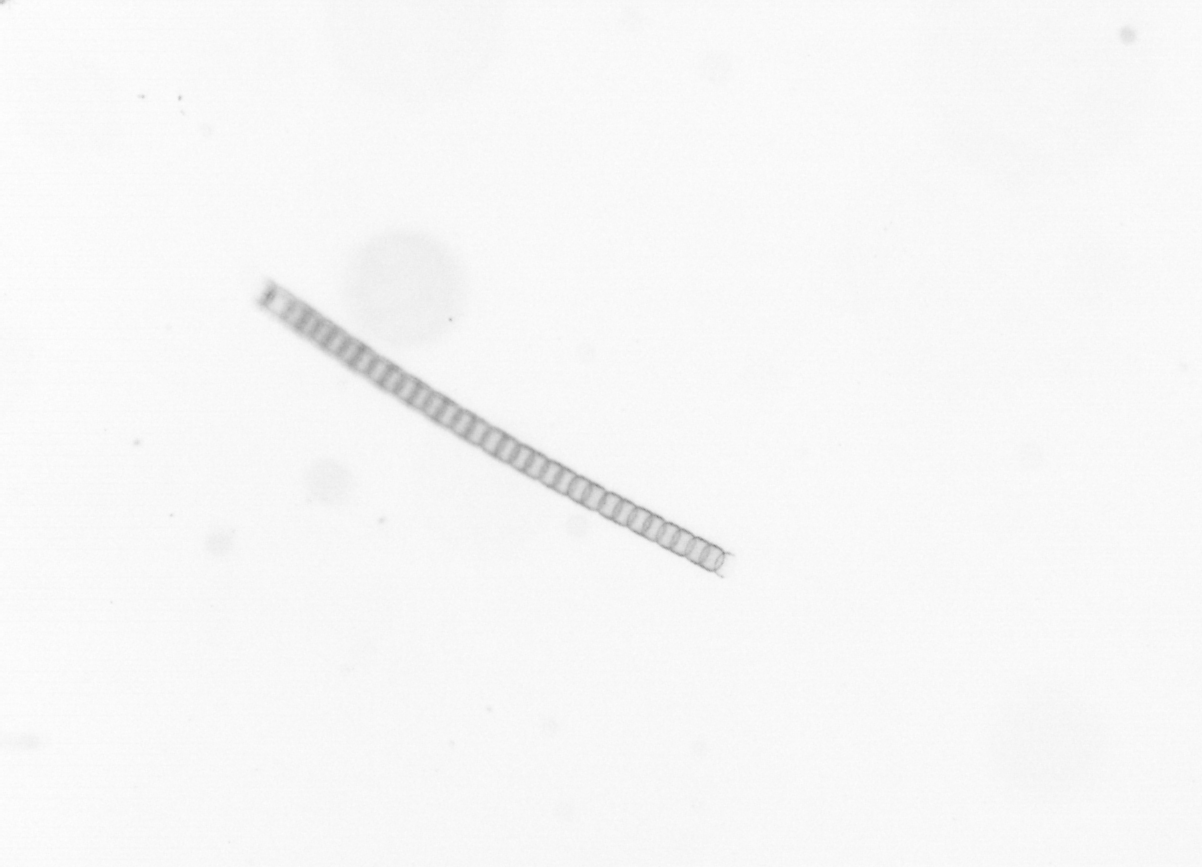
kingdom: Chromista
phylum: Ochrophyta
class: Bacillariophyceae
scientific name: Bacillariophyceae
